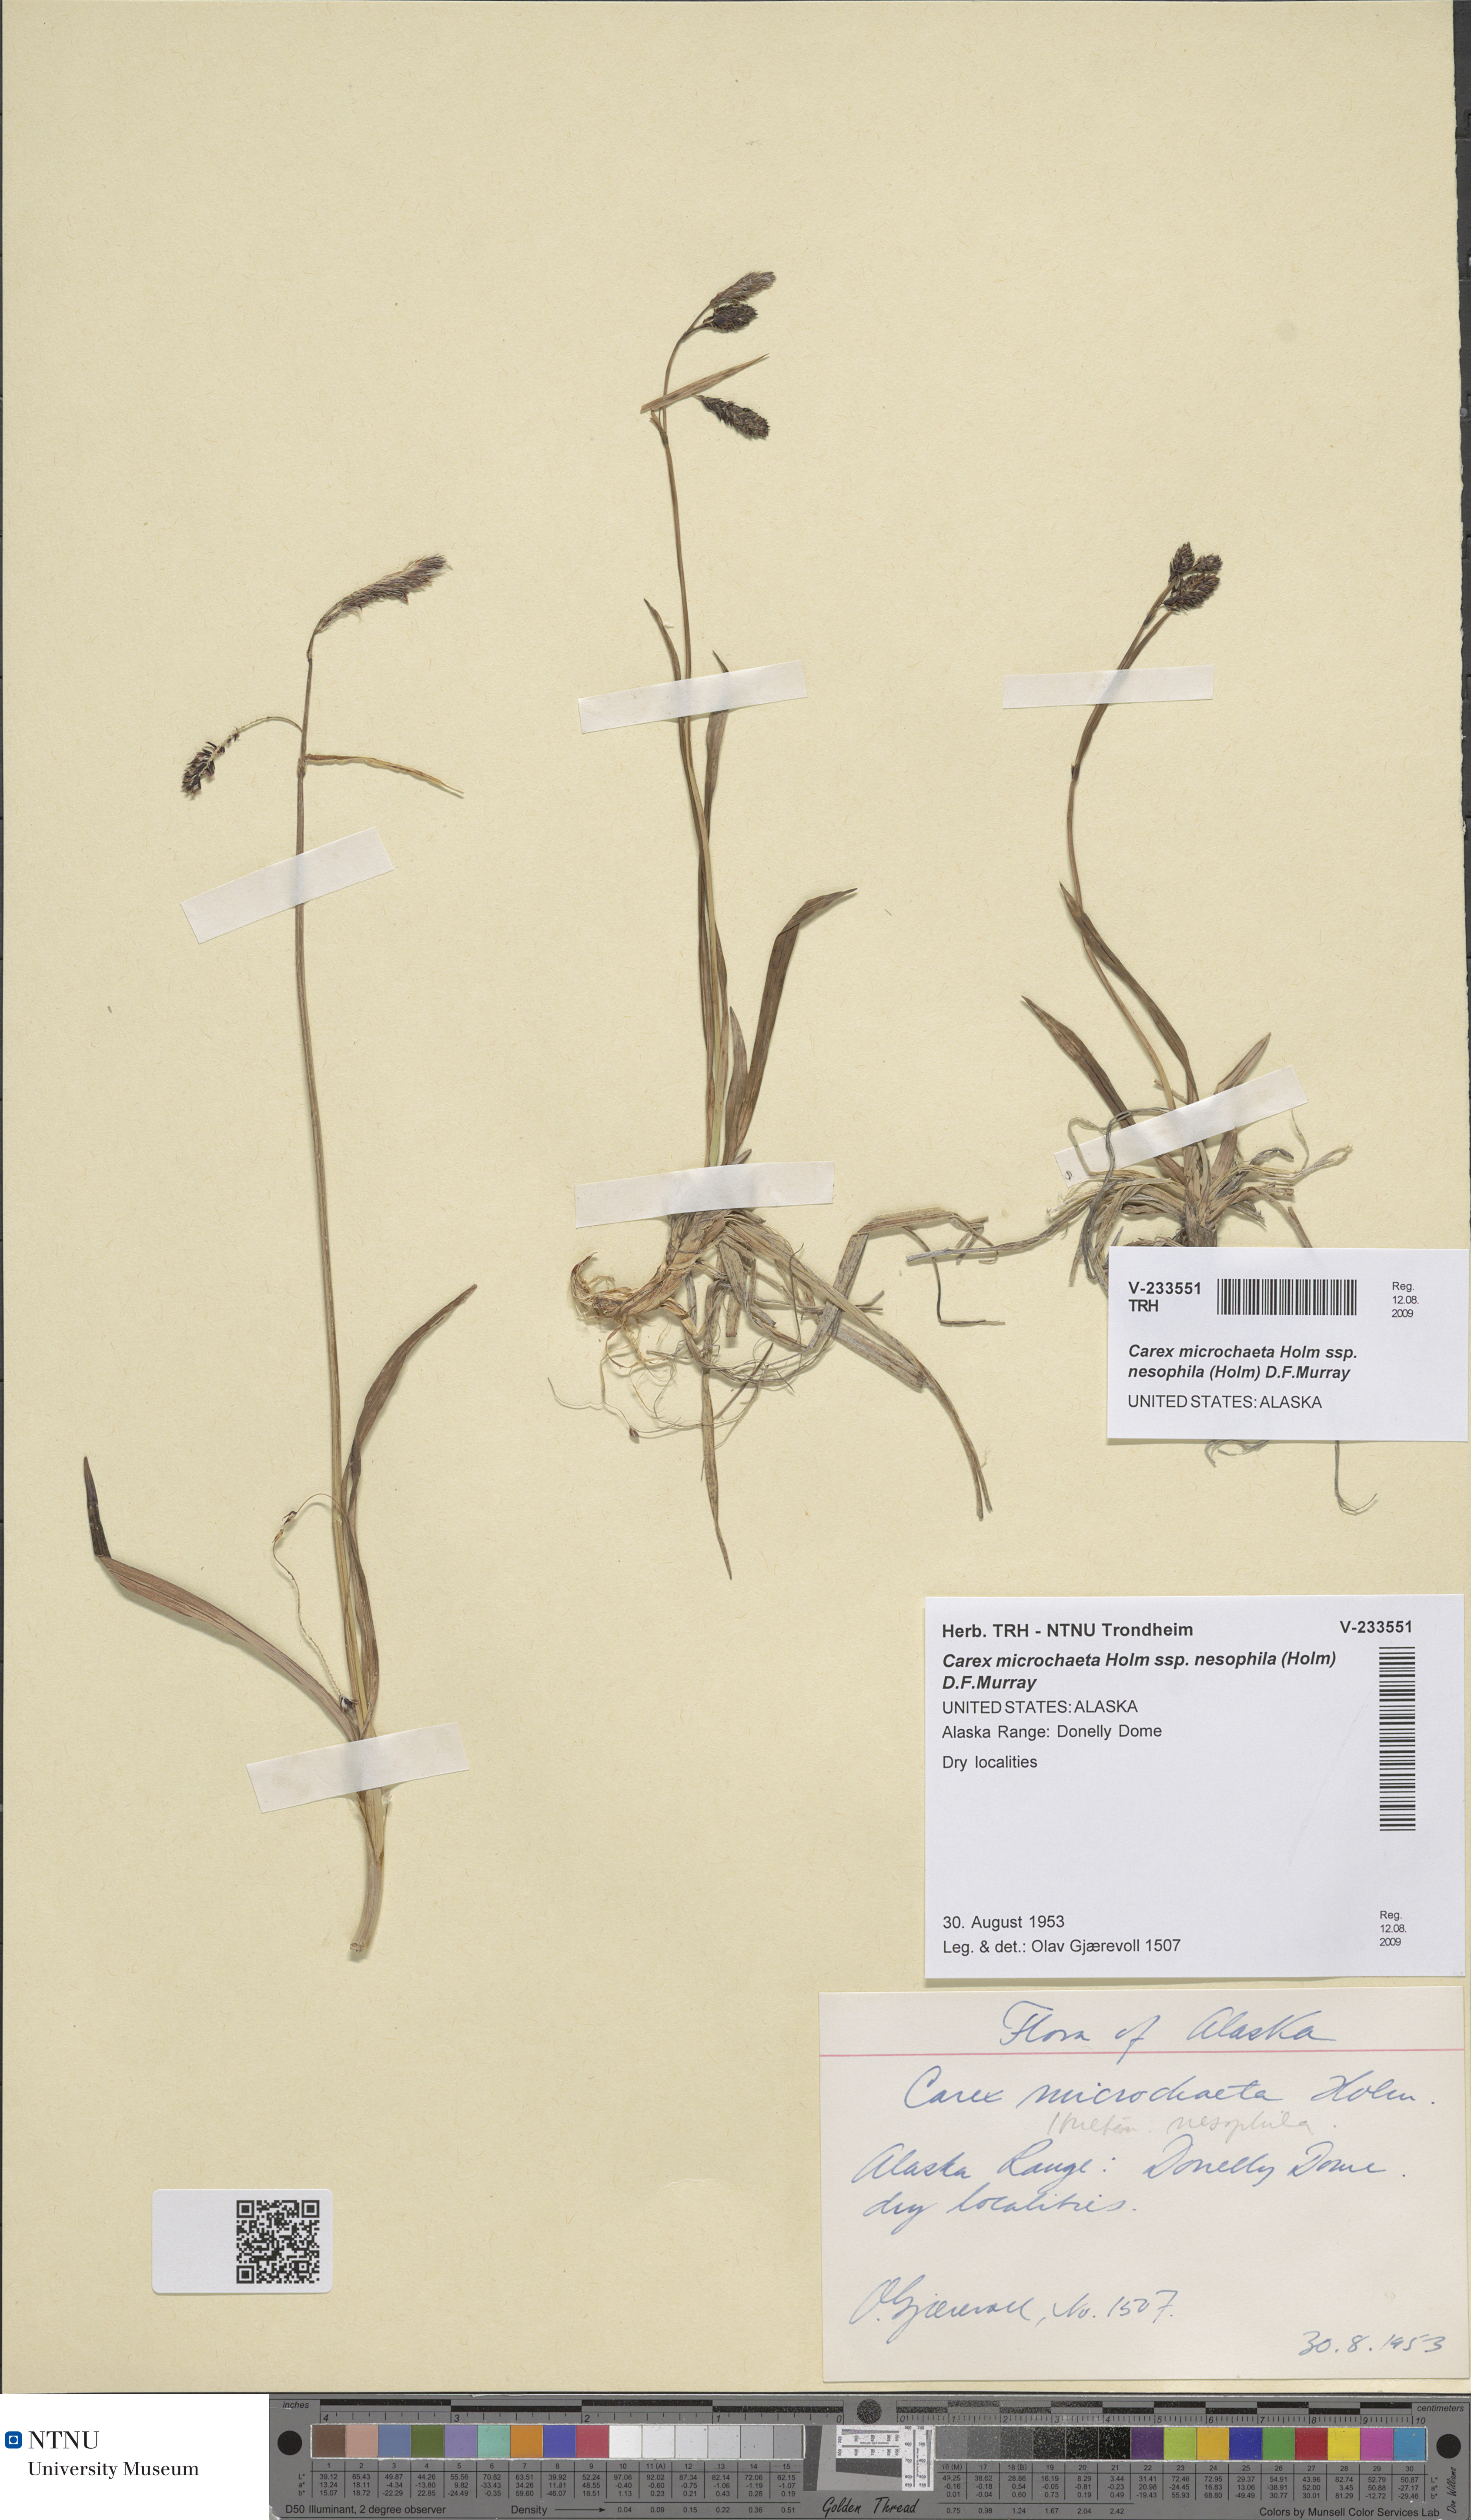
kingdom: Plantae
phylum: Tracheophyta
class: Liliopsida
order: Poales
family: Cyperaceae
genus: Carex
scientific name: Carex microchaeta
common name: Bering sea sedge
